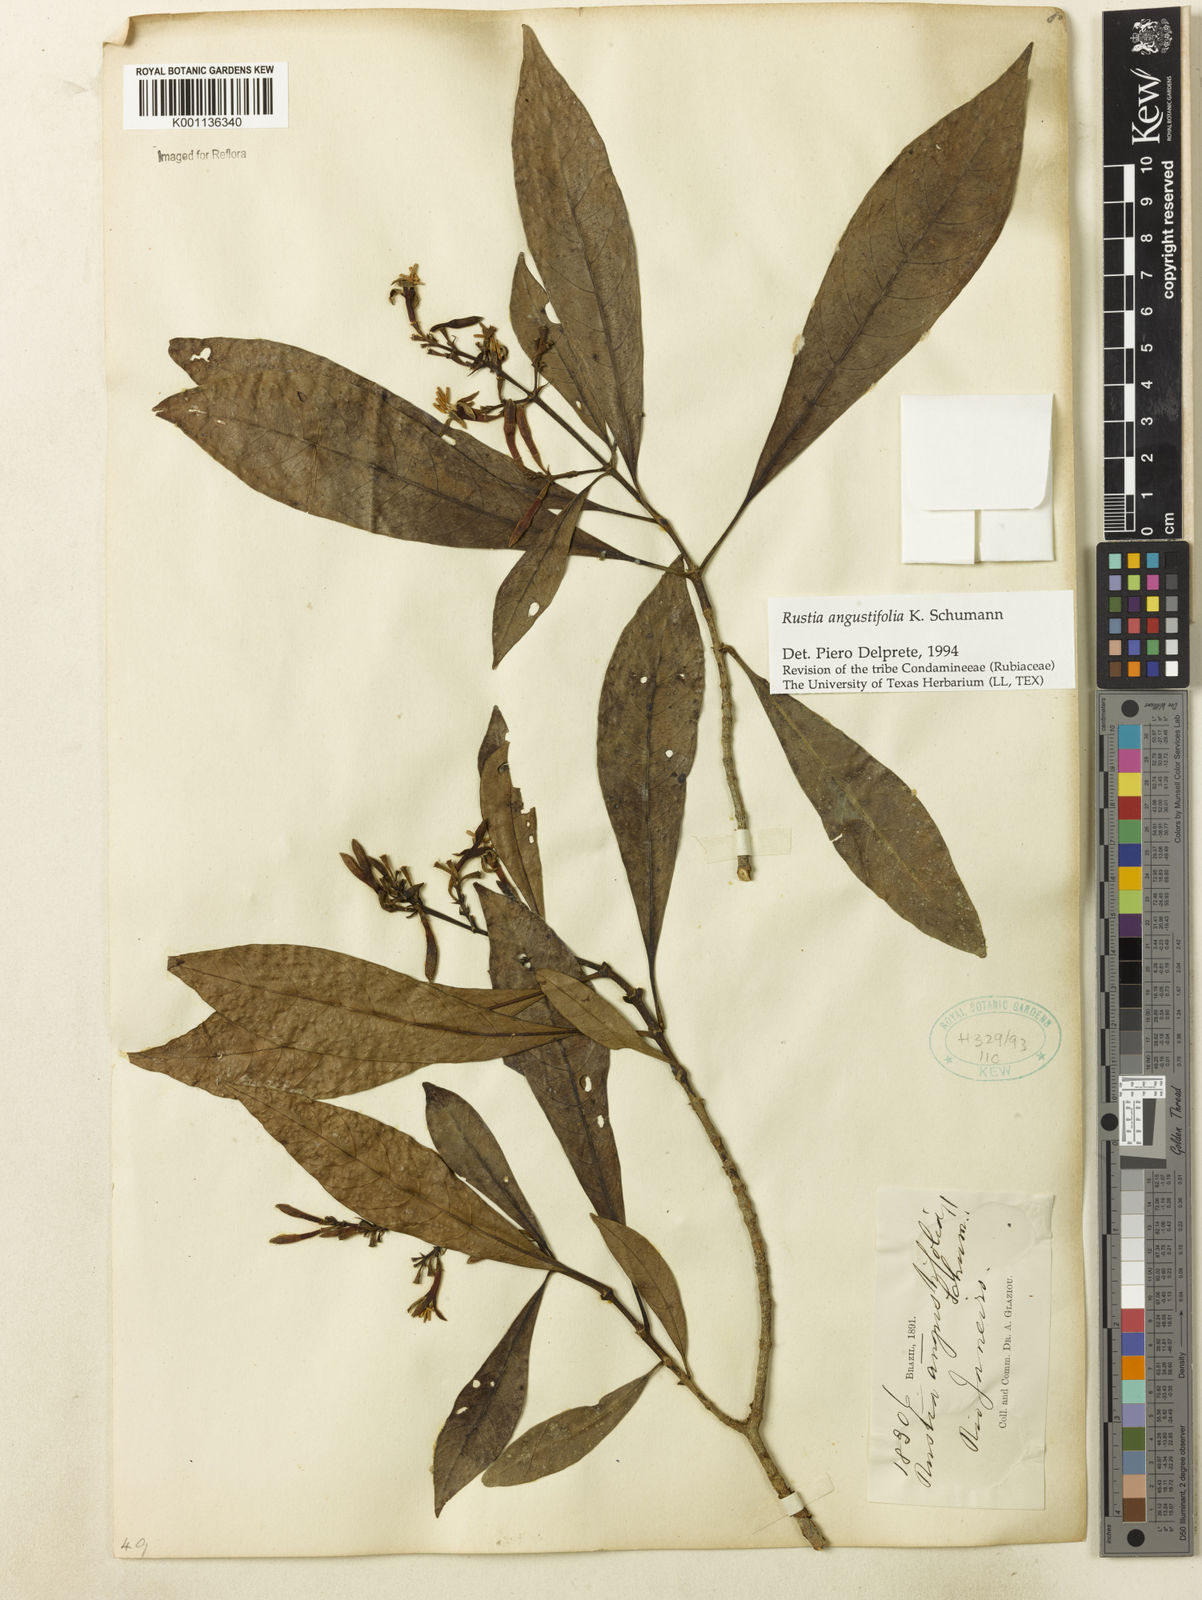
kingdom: Plantae
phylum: Tracheophyta
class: Magnoliopsida
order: Gentianales
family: Rubiaceae
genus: Rustia
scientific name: Rustia angustifolia
